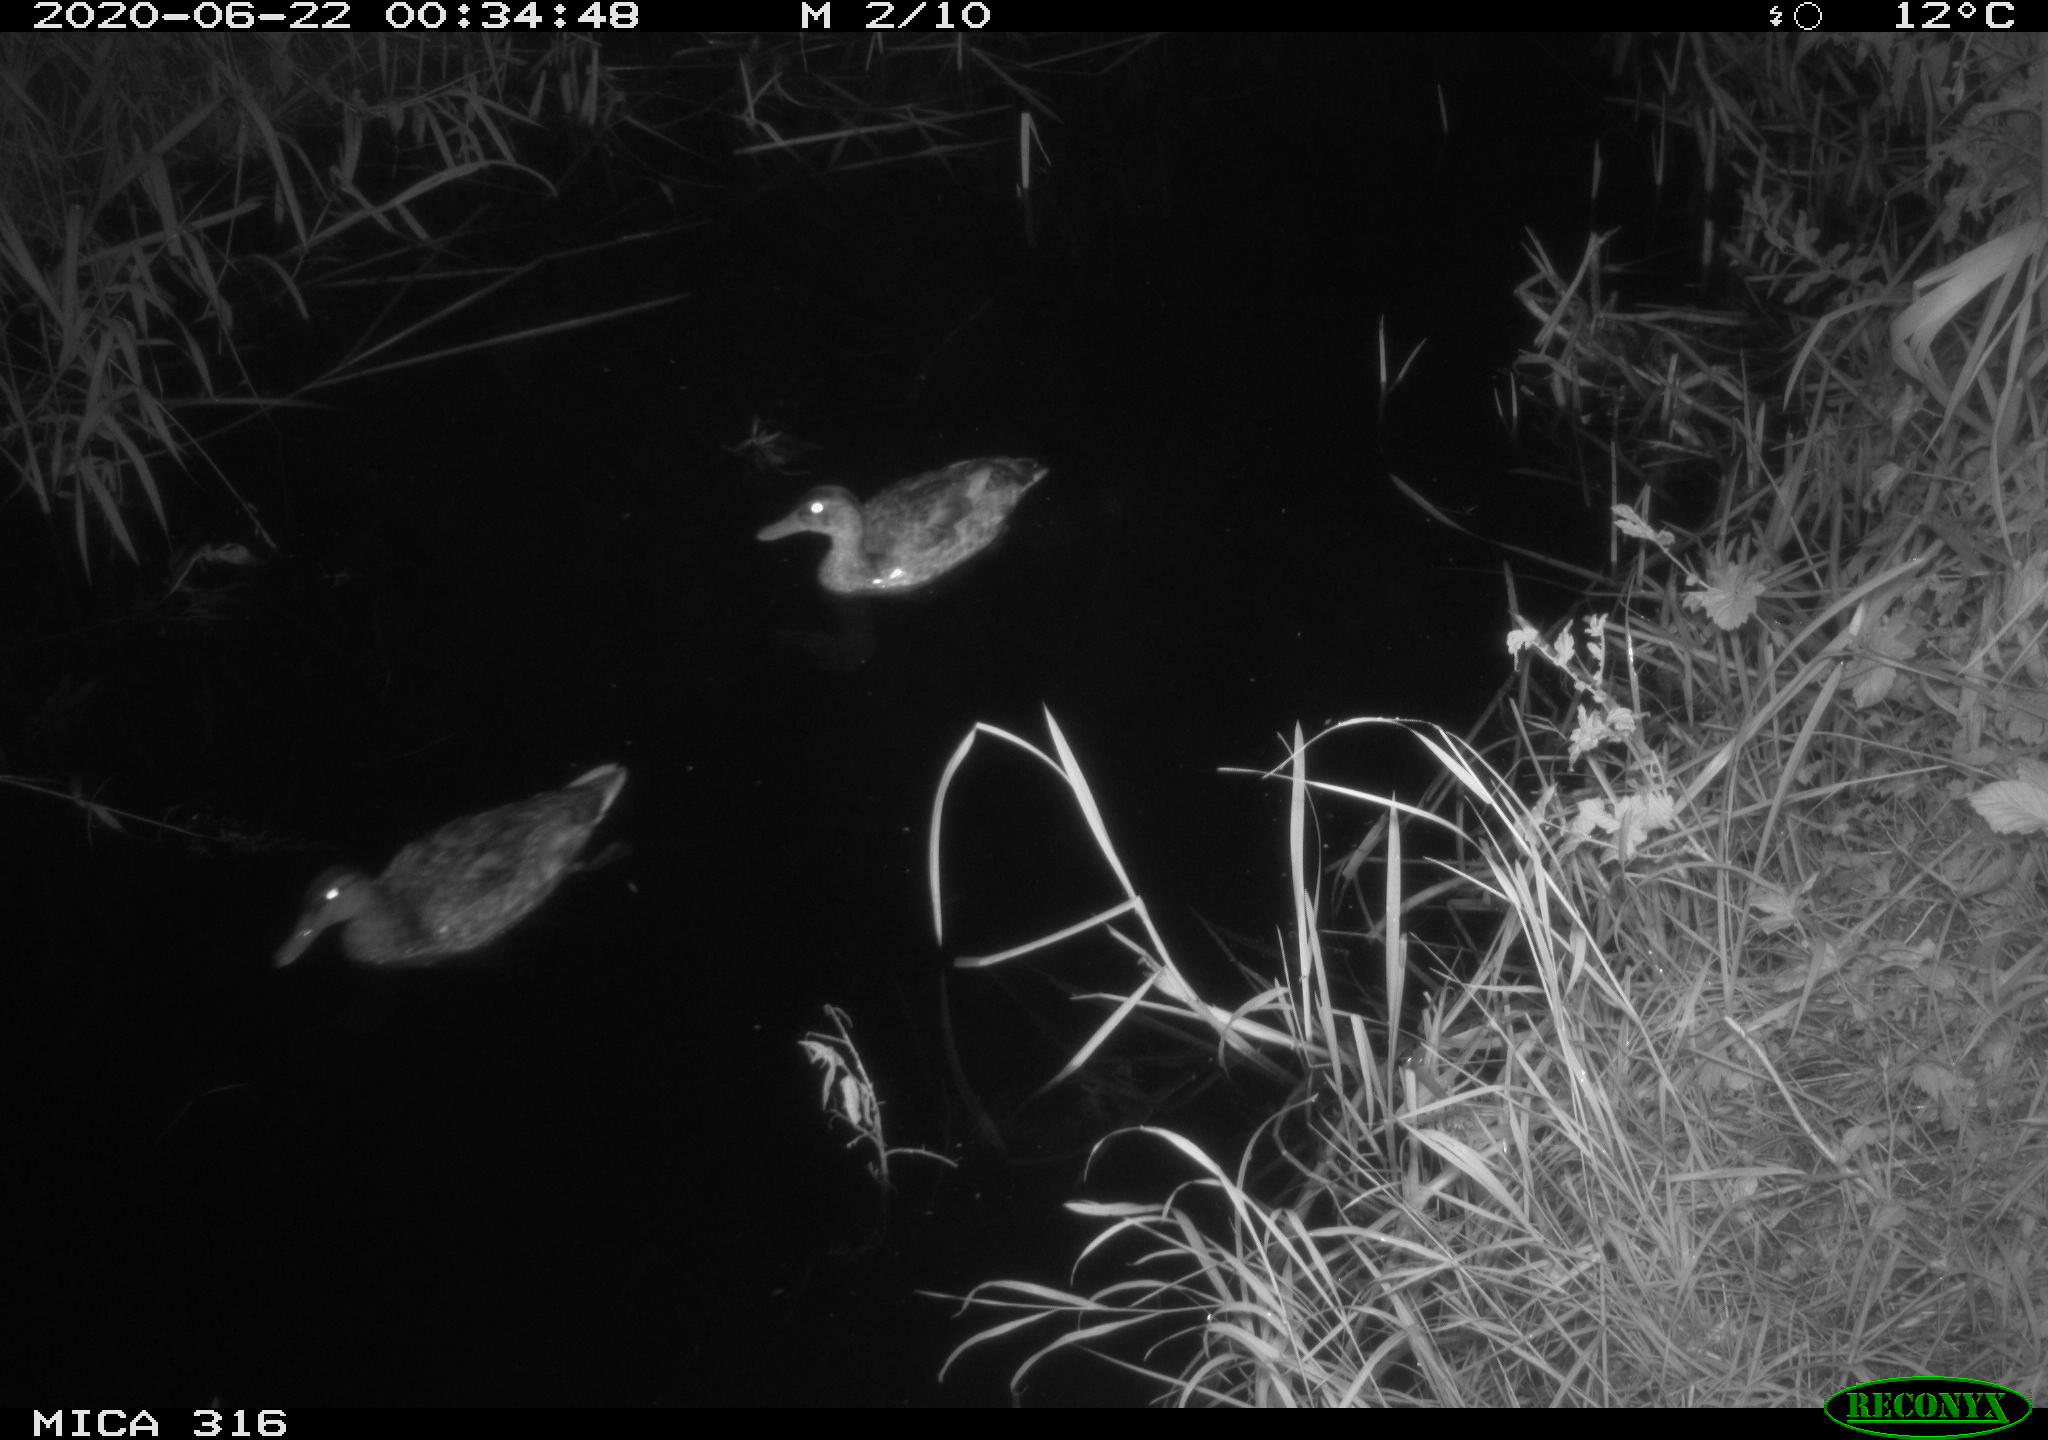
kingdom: Animalia
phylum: Chordata
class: Aves
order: Anseriformes
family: Anatidae
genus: Anas
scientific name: Anas platyrhynchos
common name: Mallard
